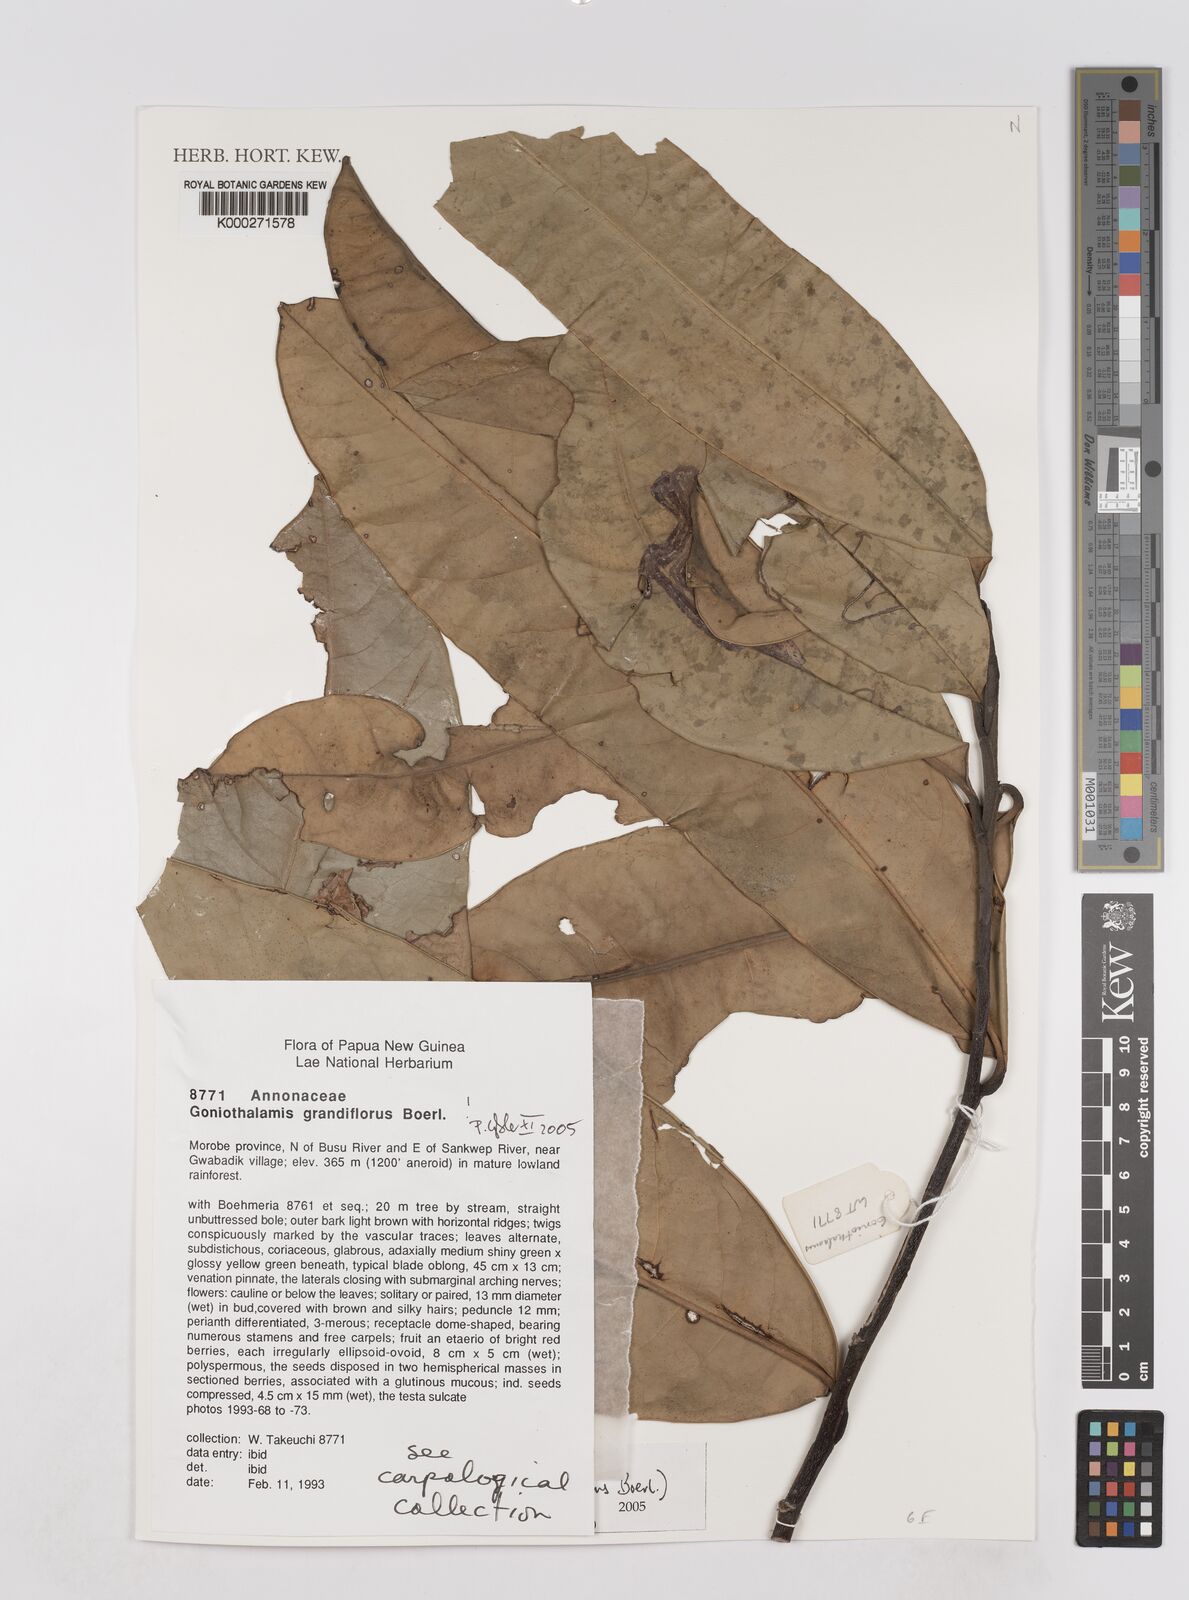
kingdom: Plantae
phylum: Tracheophyta
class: Magnoliopsida
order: Magnoliales
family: Annonaceae
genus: Goniothalamus
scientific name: Goniothalamus grandiflorus
